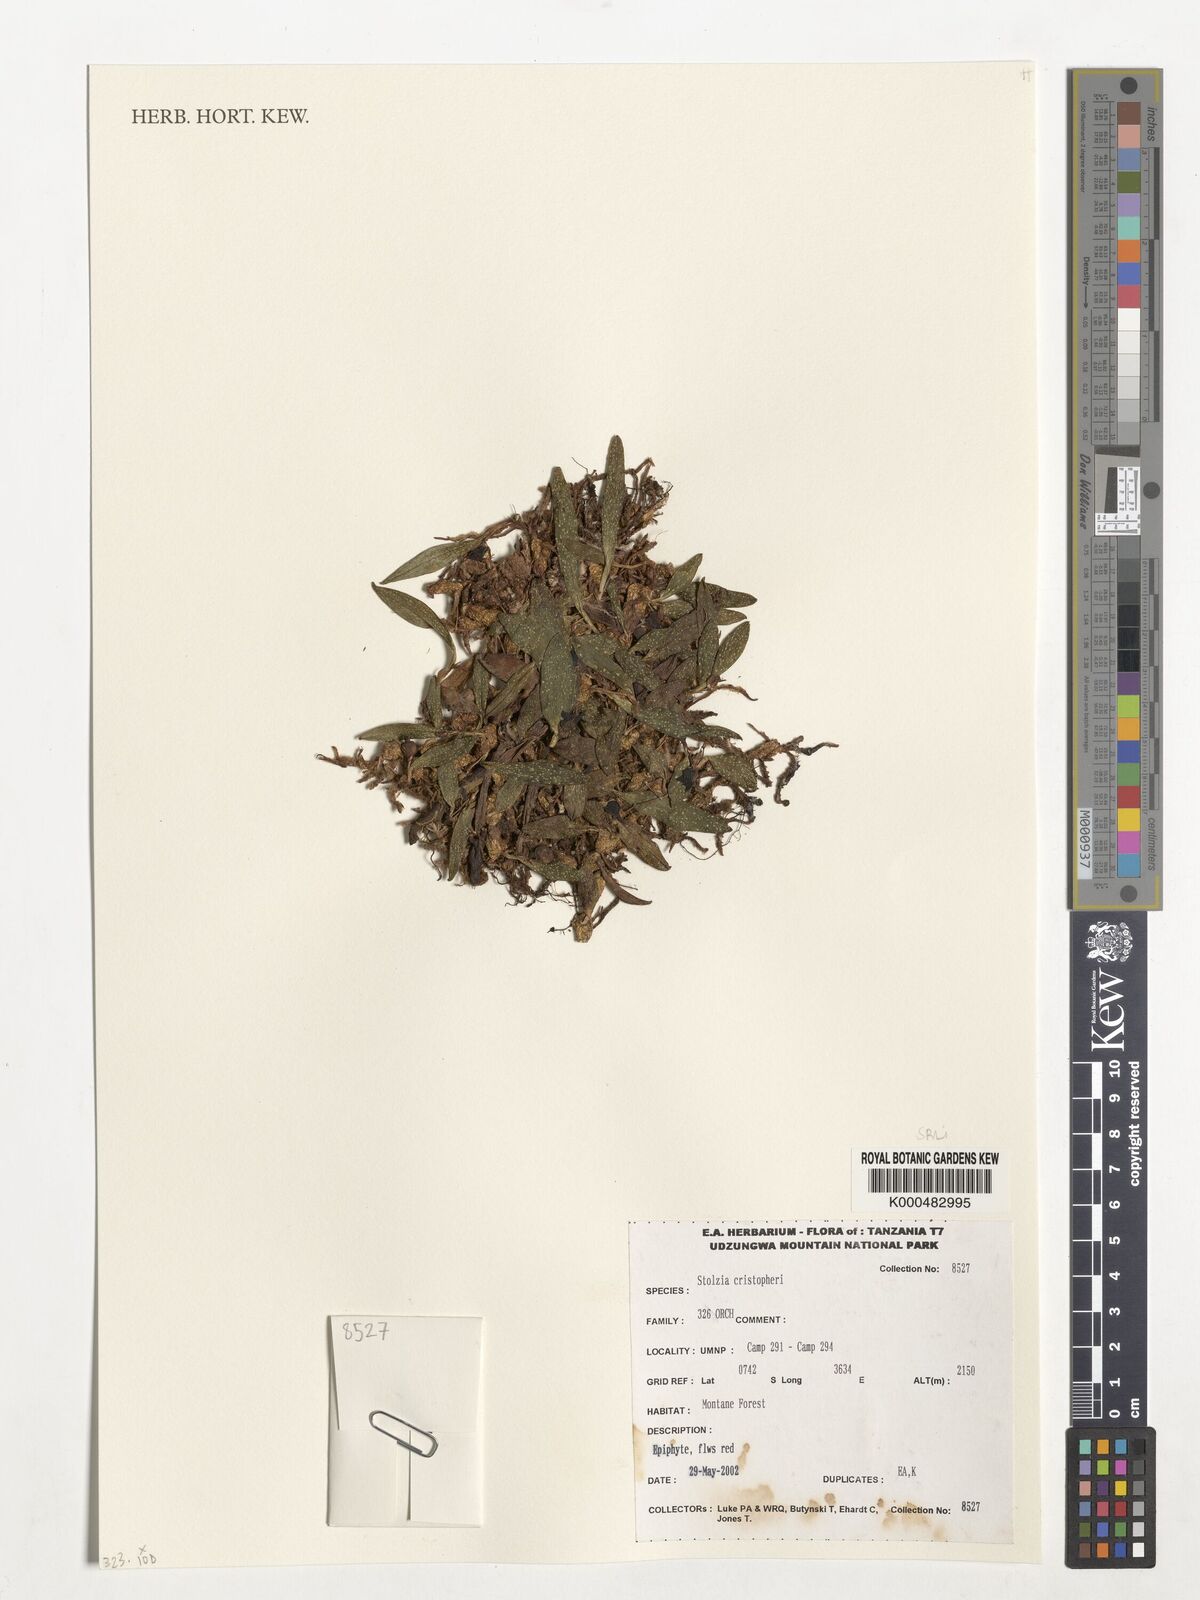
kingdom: Plantae
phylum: Tracheophyta
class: Liliopsida
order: Asparagales
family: Orchidaceae
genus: Porpax
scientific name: Porpax christopheri
